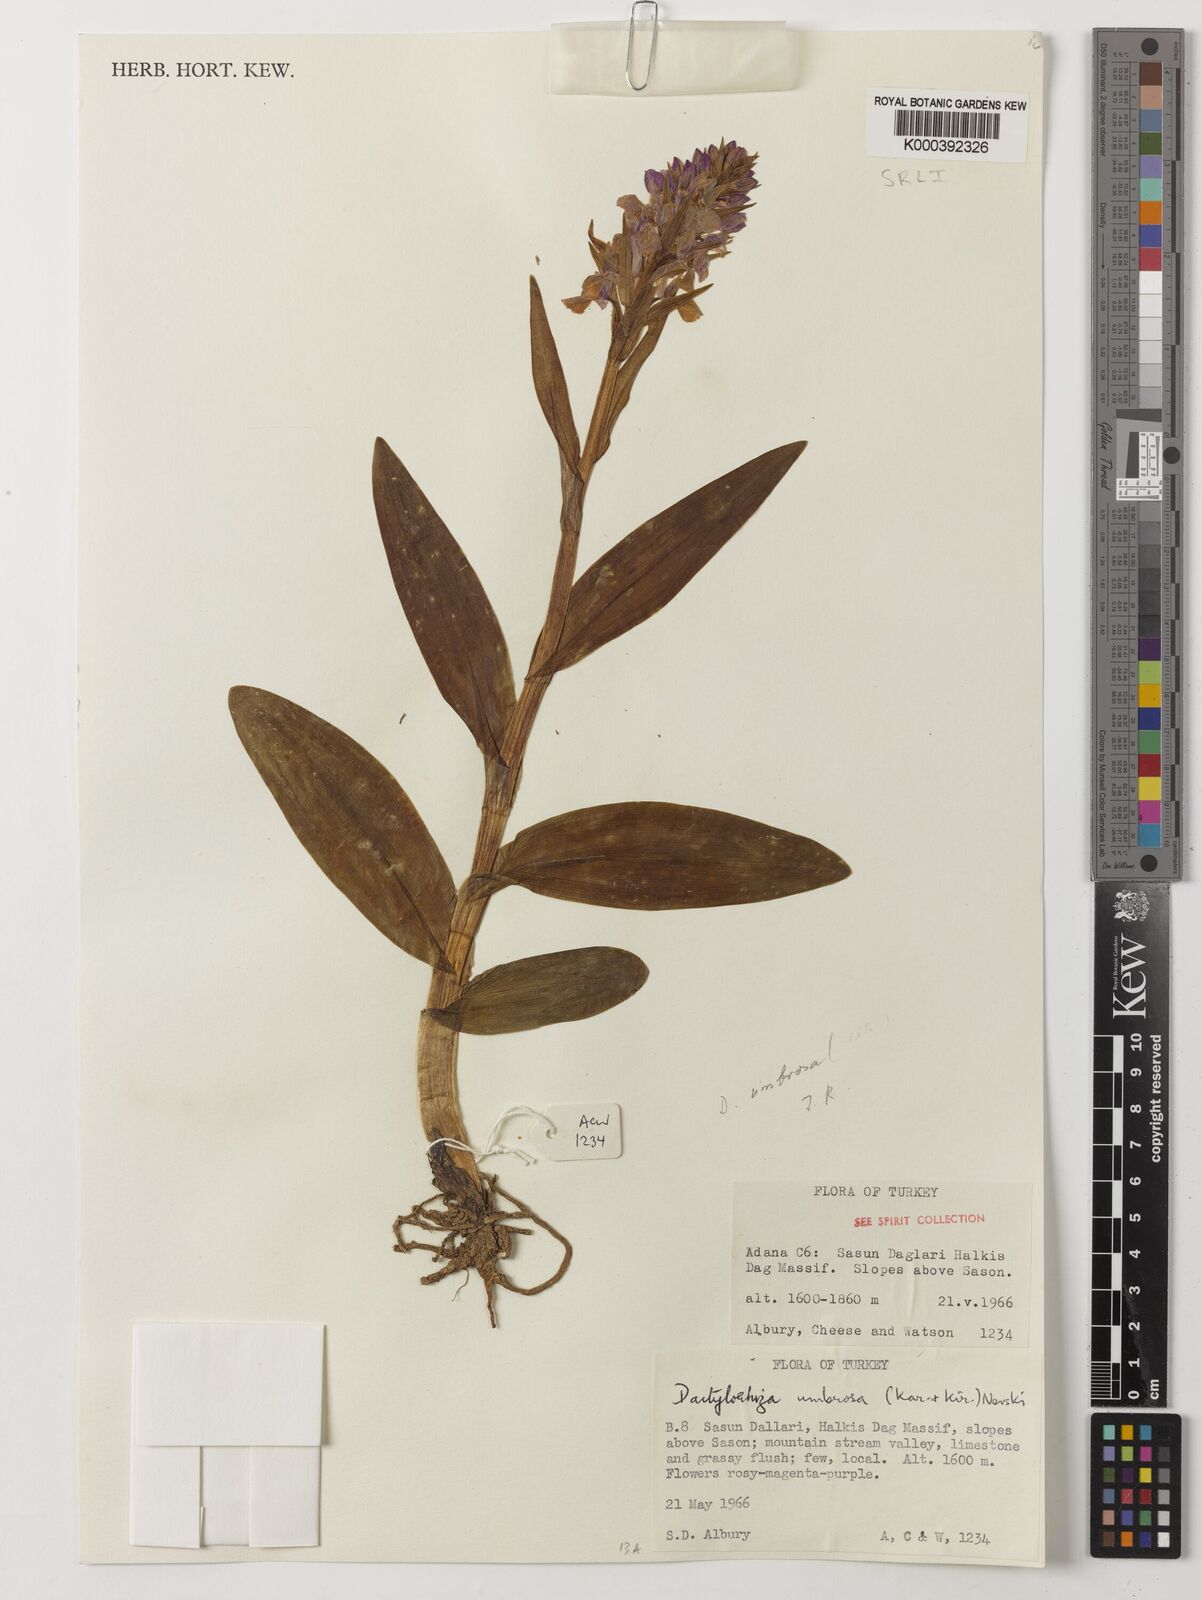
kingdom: Plantae
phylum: Tracheophyta
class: Liliopsida
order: Asparagales
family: Orchidaceae
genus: Dactylorhiza
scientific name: Dactylorhiza
